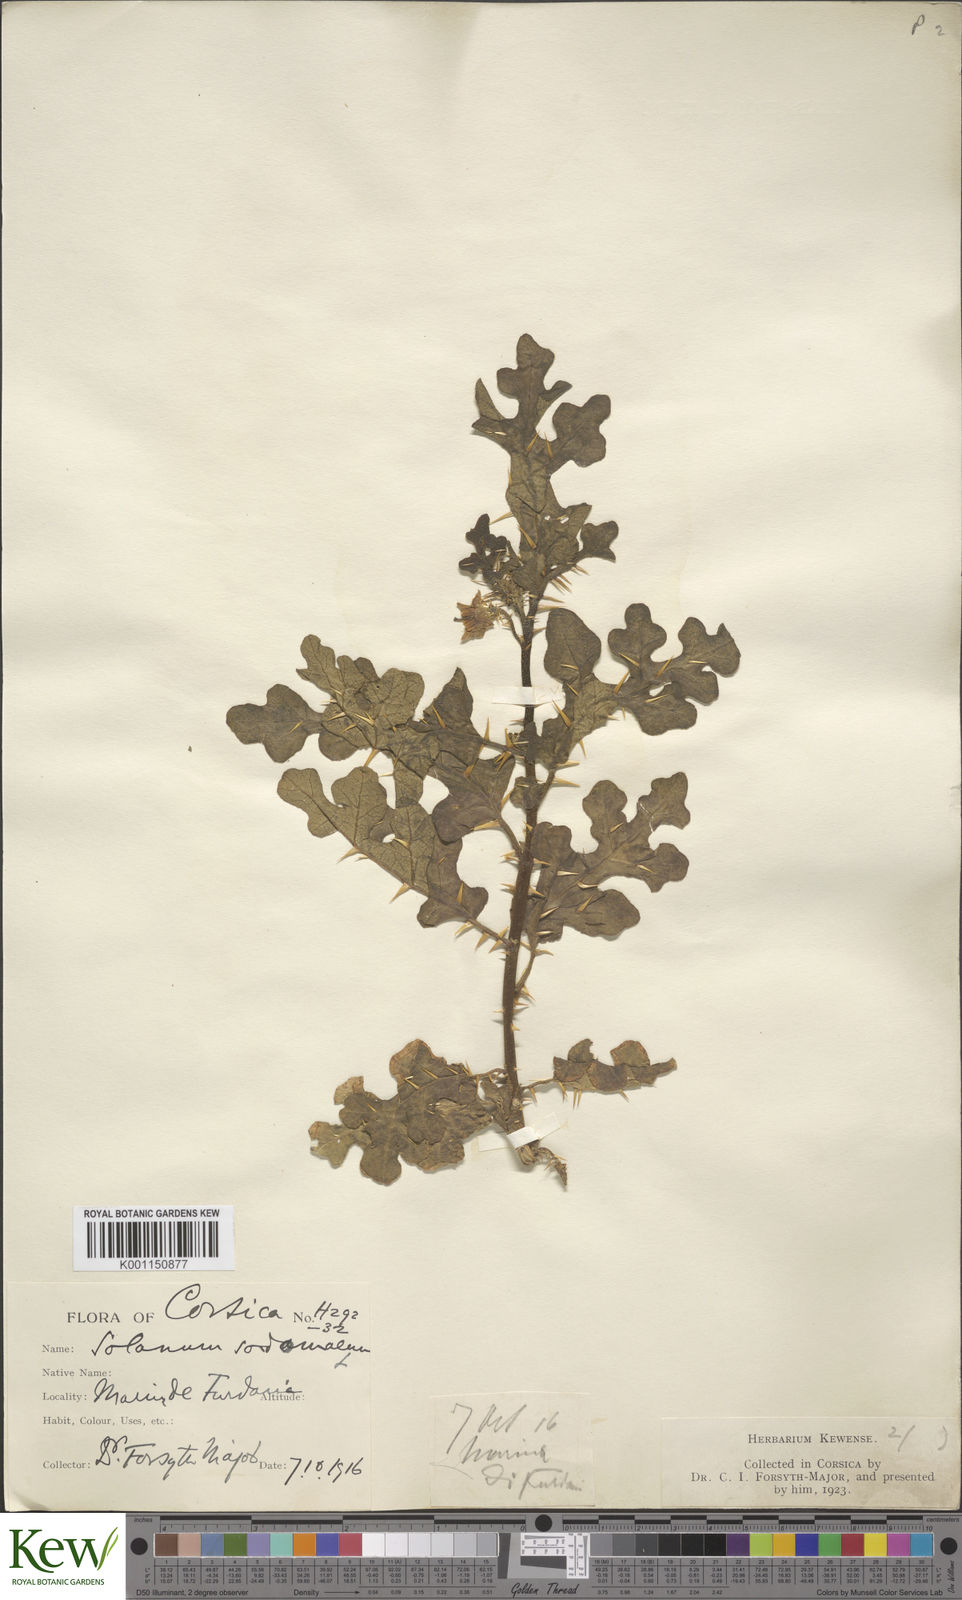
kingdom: Plantae
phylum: Tracheophyta
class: Magnoliopsida
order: Solanales
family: Solanaceae
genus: Solanum
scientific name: Solanum anguivi
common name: Forest bitterberry
